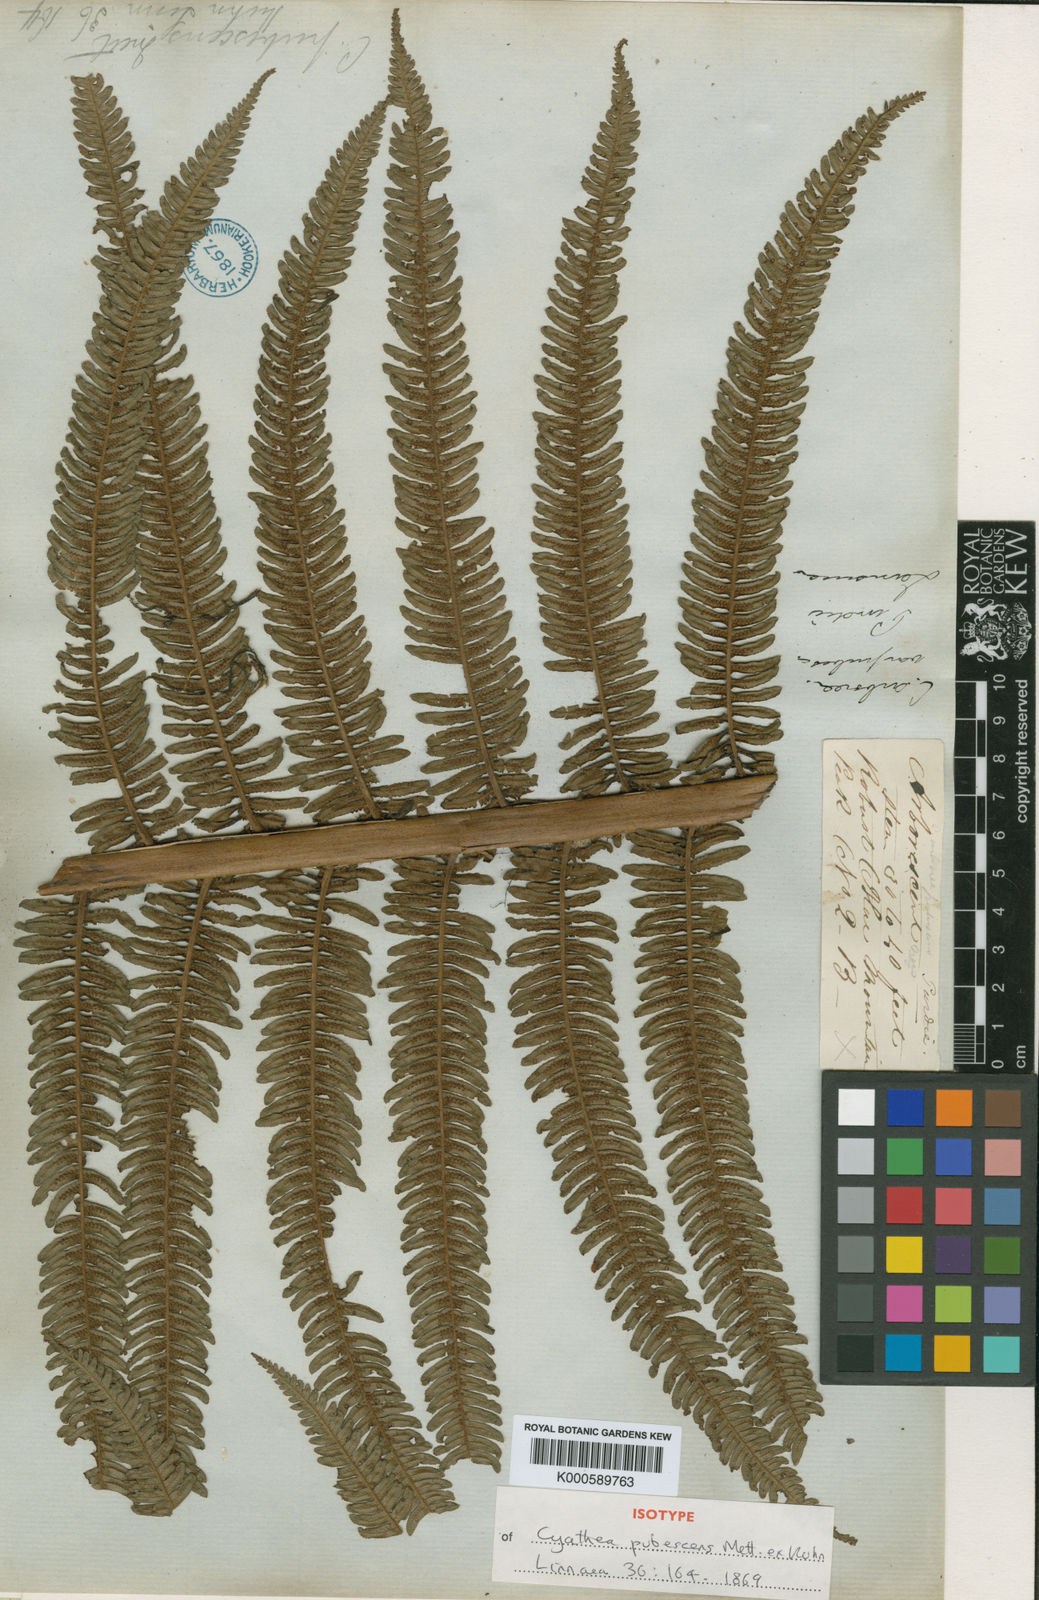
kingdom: Plantae
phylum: Tracheophyta
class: Polypodiopsida
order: Cyatheales
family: Cyatheaceae
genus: Alsophila
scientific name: Alsophila auneae
